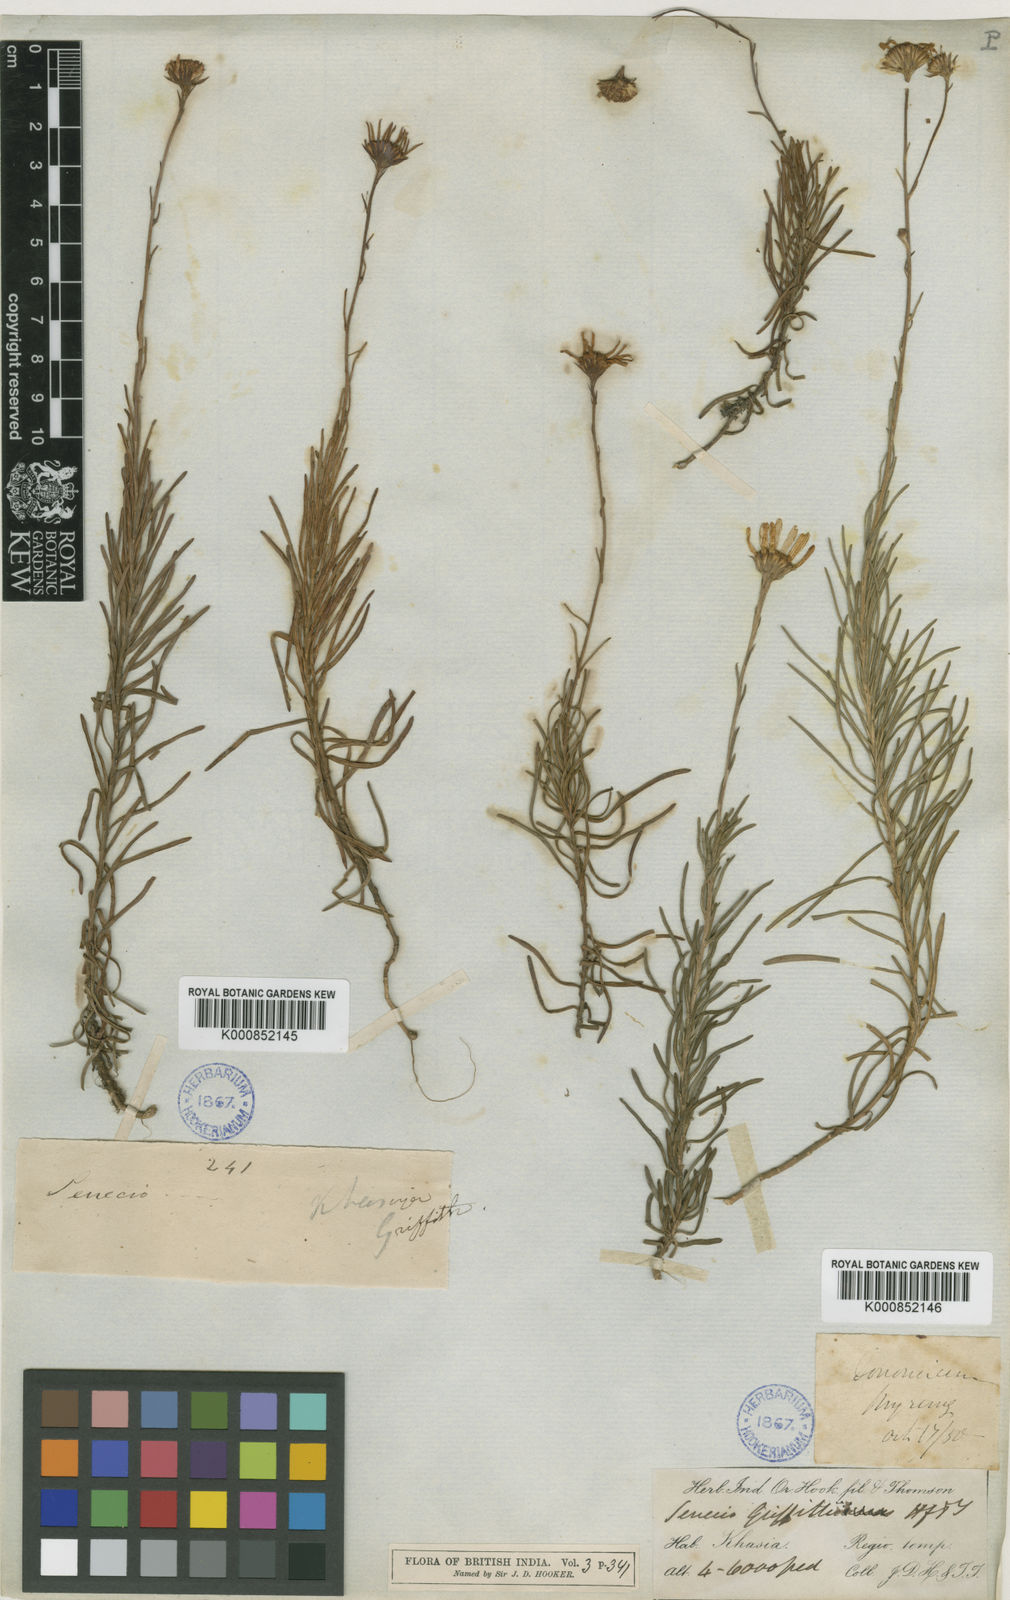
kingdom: Plantae
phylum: Tracheophyta
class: Magnoliopsida
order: Asterales
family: Asteraceae
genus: Senecio
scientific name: Senecio griffithii
